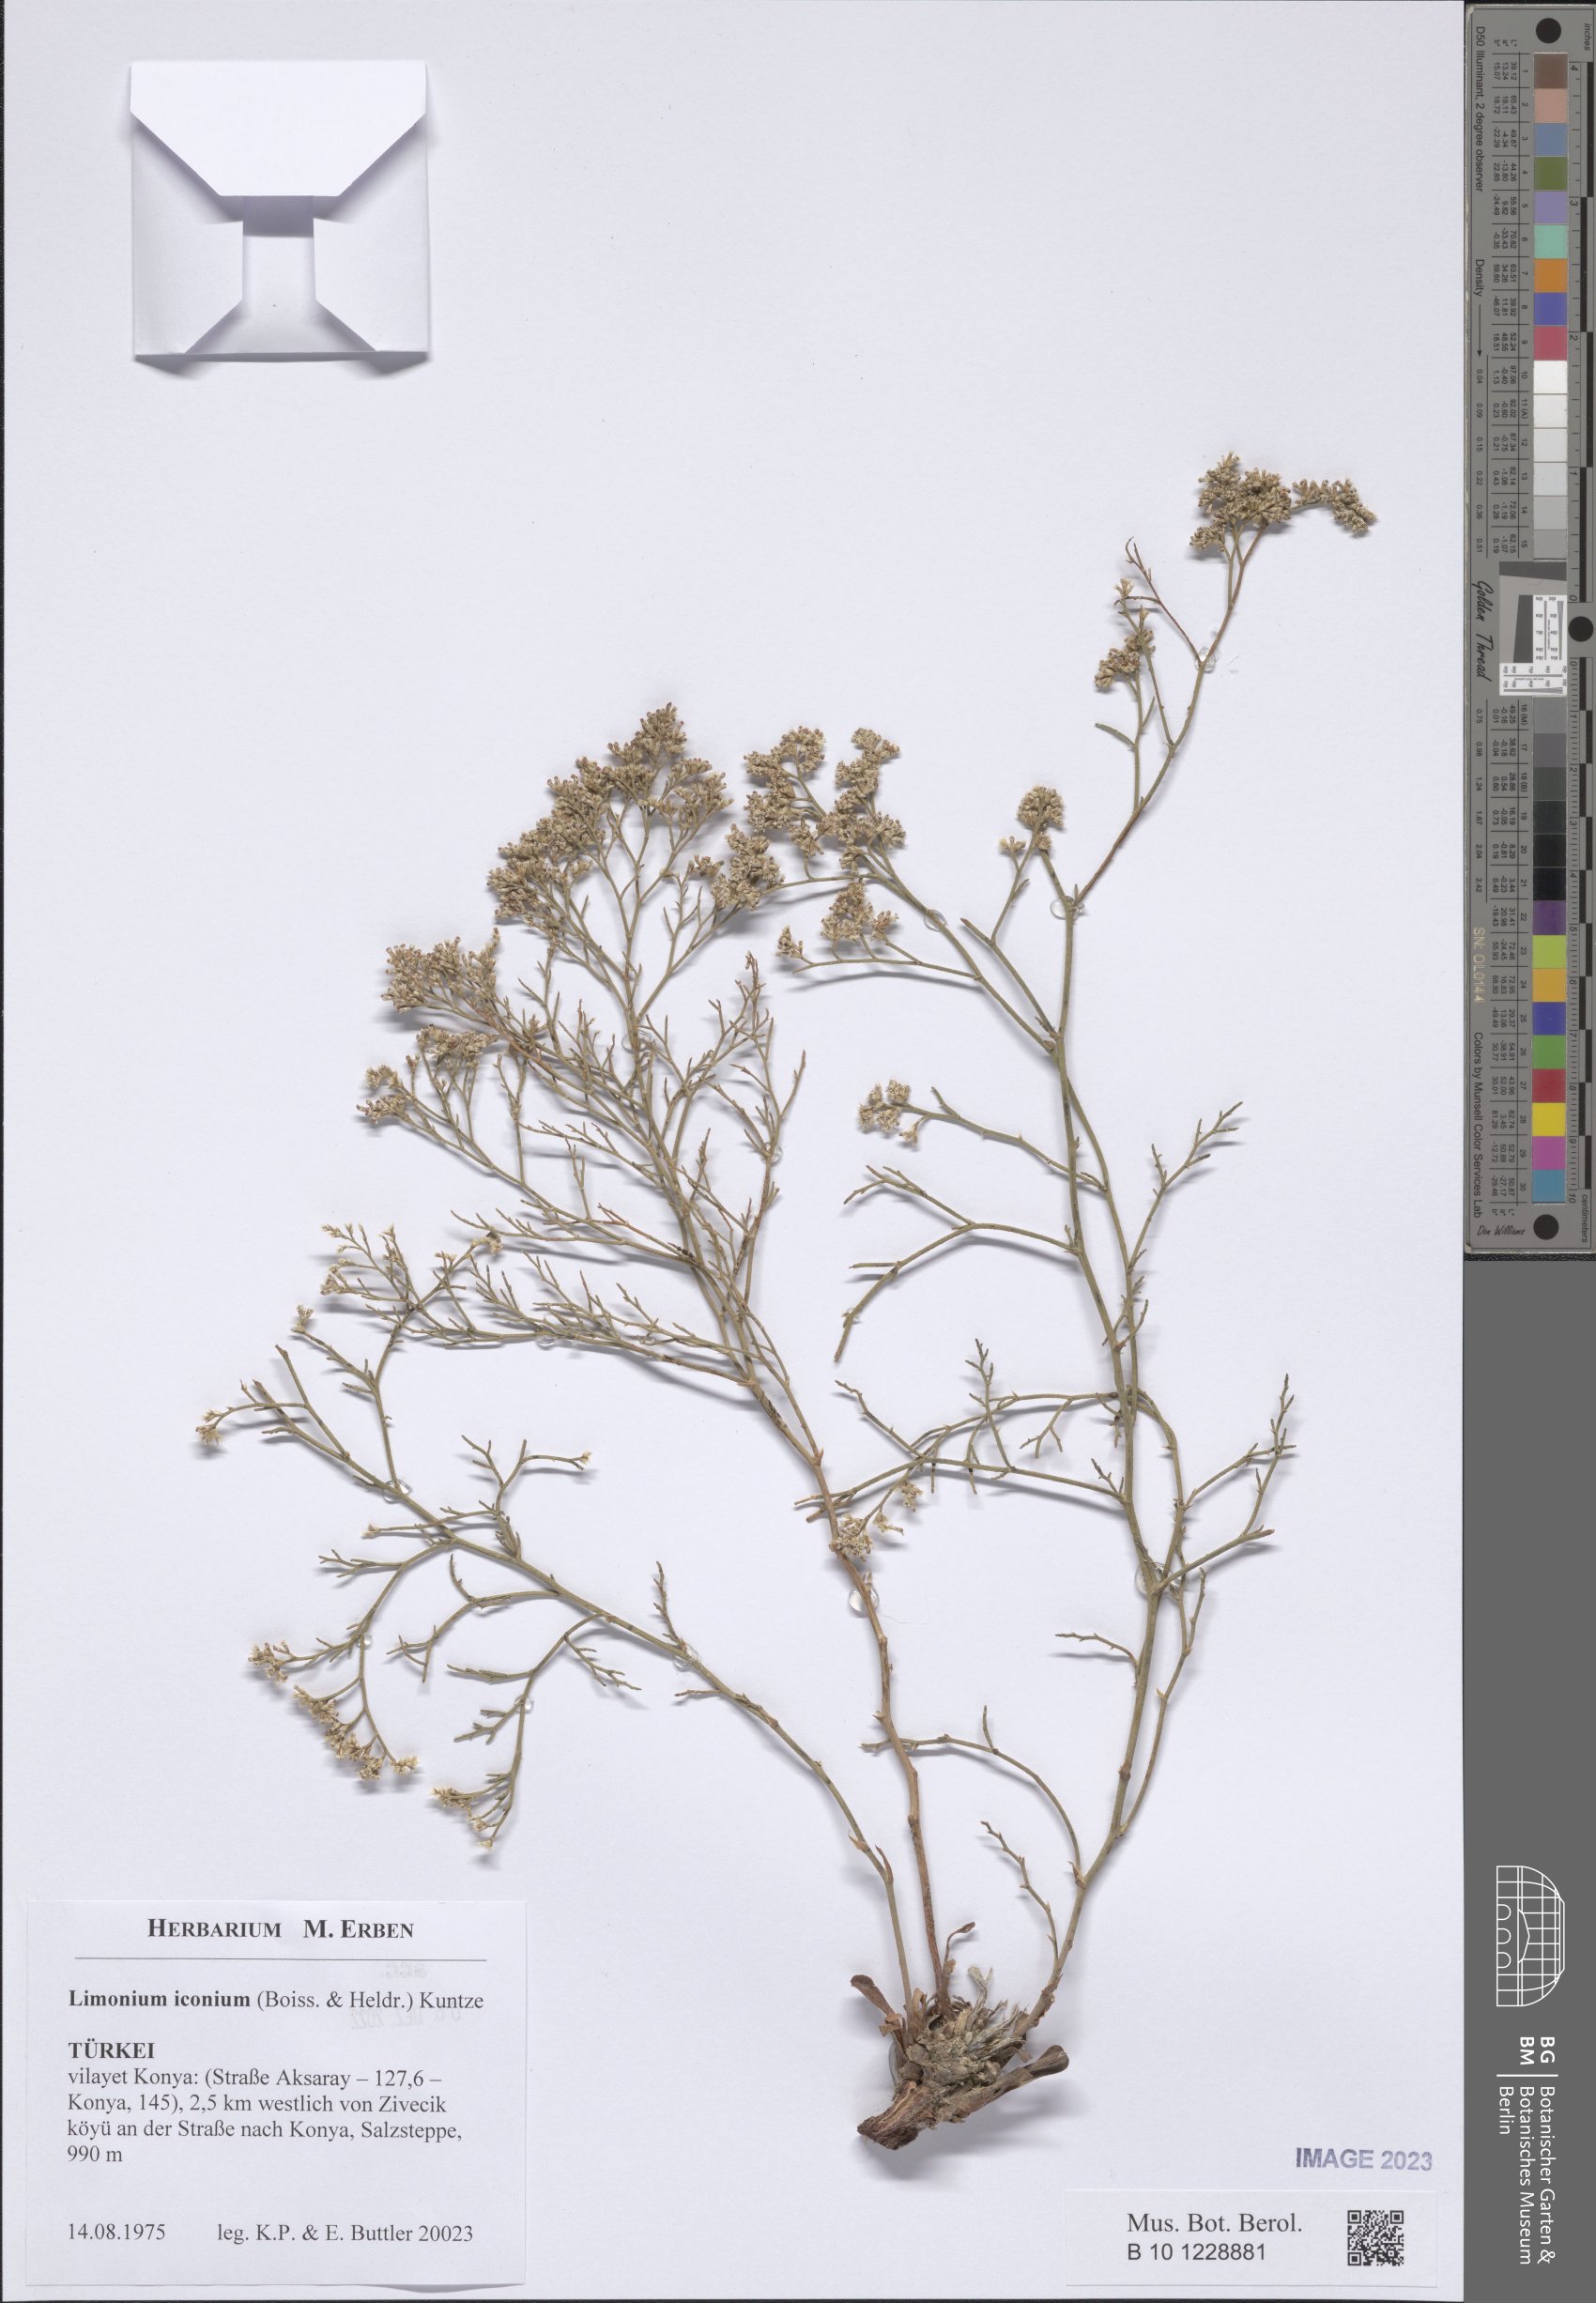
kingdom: Plantae
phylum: Tracheophyta
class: Magnoliopsida
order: Caryophyllales
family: Plumbaginaceae
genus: Limonium
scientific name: Limonium iconium
